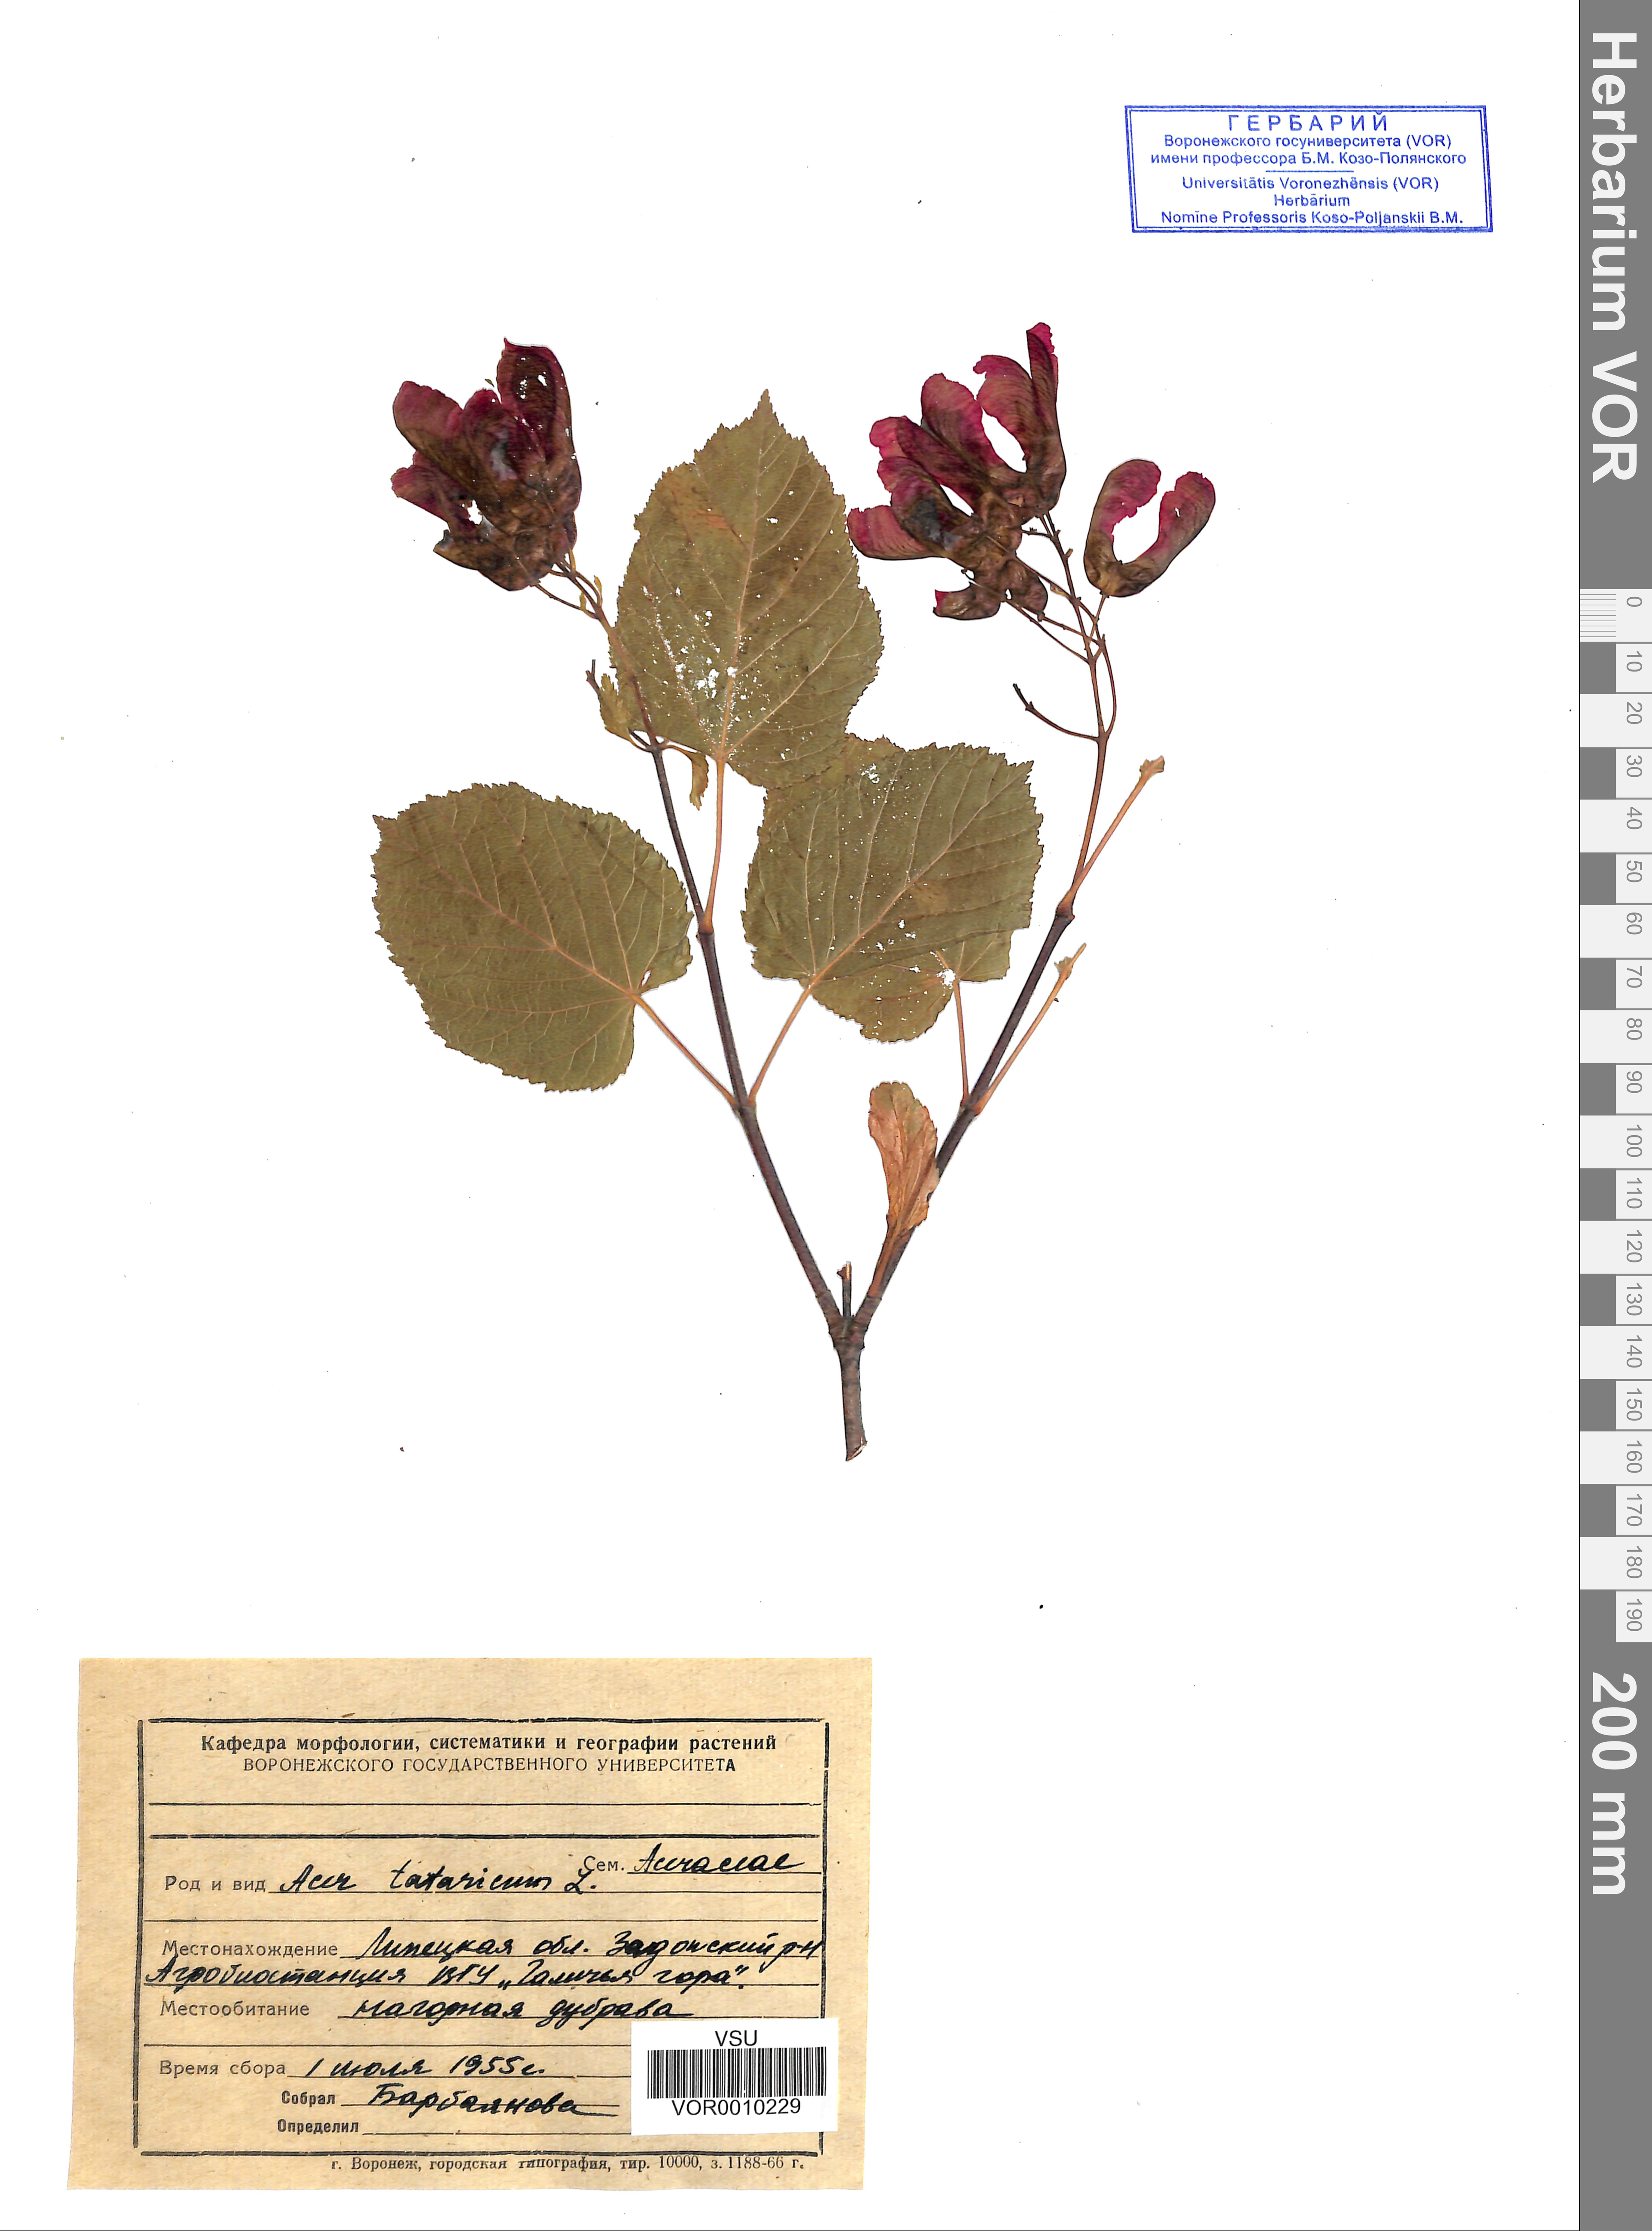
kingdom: Plantae
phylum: Tracheophyta
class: Magnoliopsida
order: Sapindales
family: Sapindaceae
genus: Acer
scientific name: Acer tataricum
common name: Tartar maple
